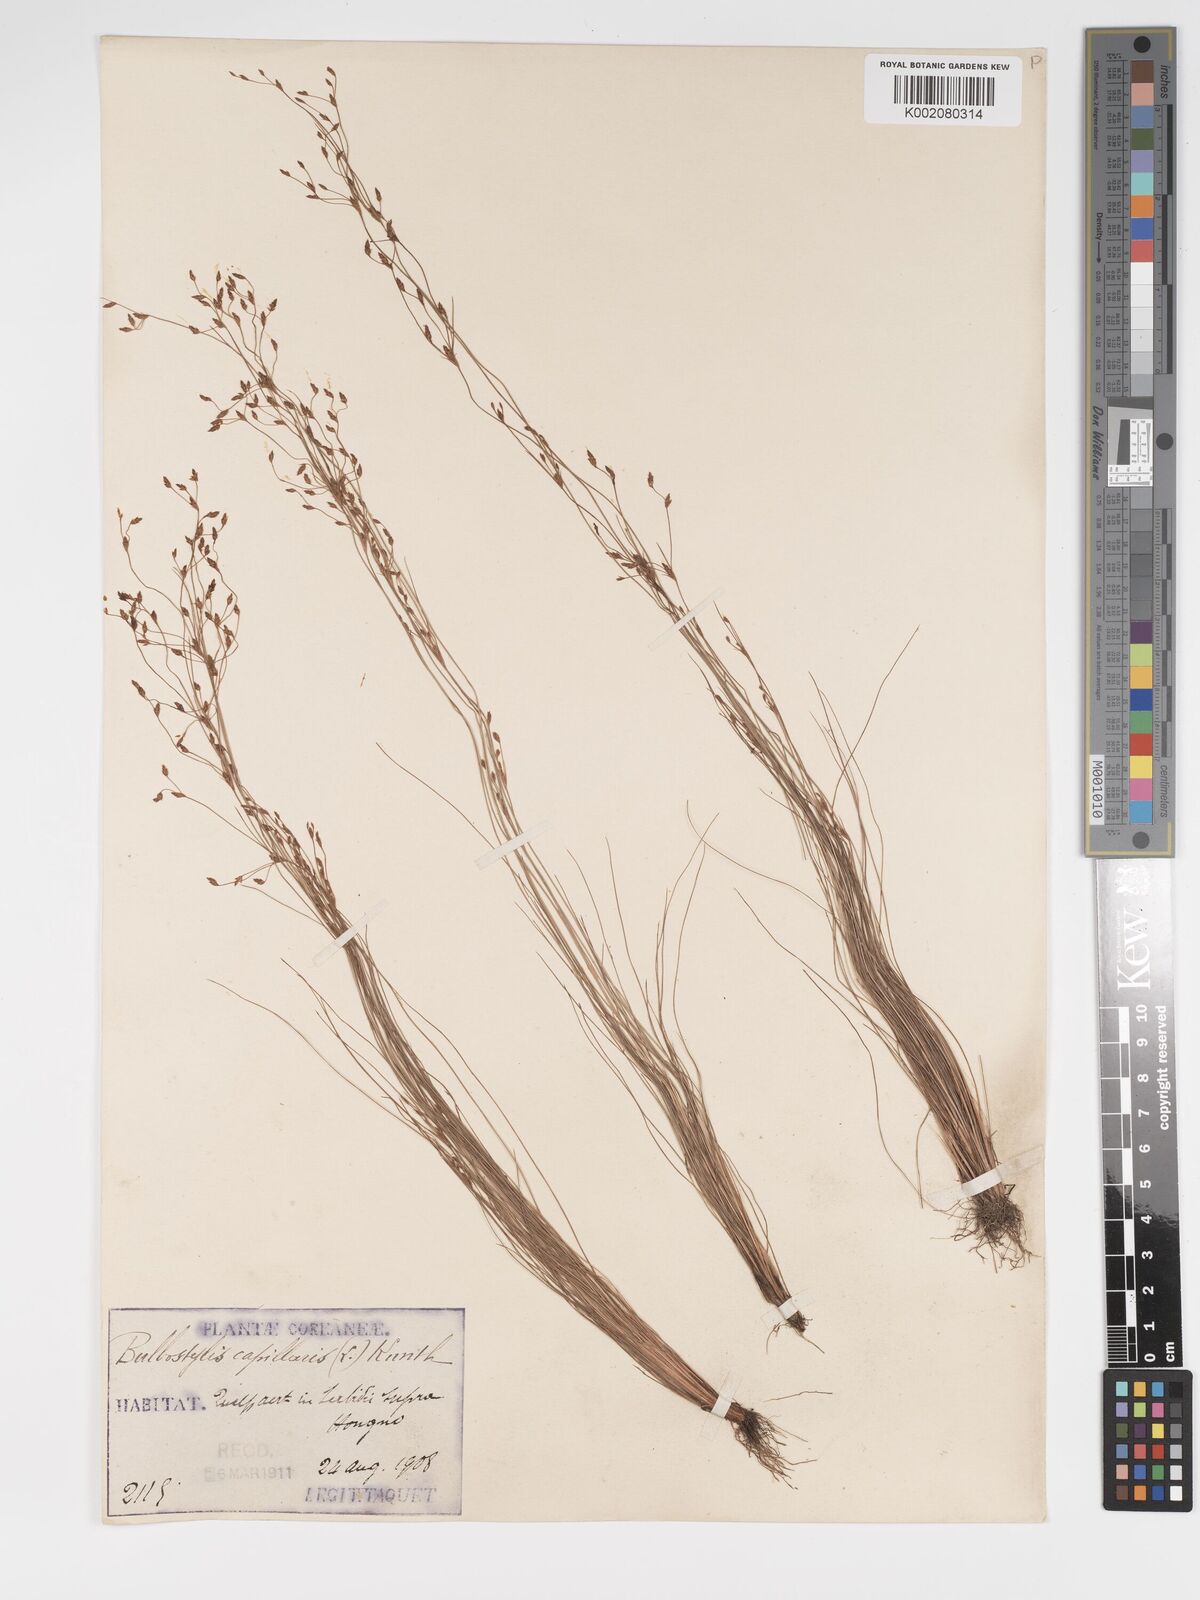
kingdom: Plantae
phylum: Tracheophyta
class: Liliopsida
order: Poales
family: Cyperaceae
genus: Bulbostylis
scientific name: Bulbostylis capillaris
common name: Densetuft hairsedge
